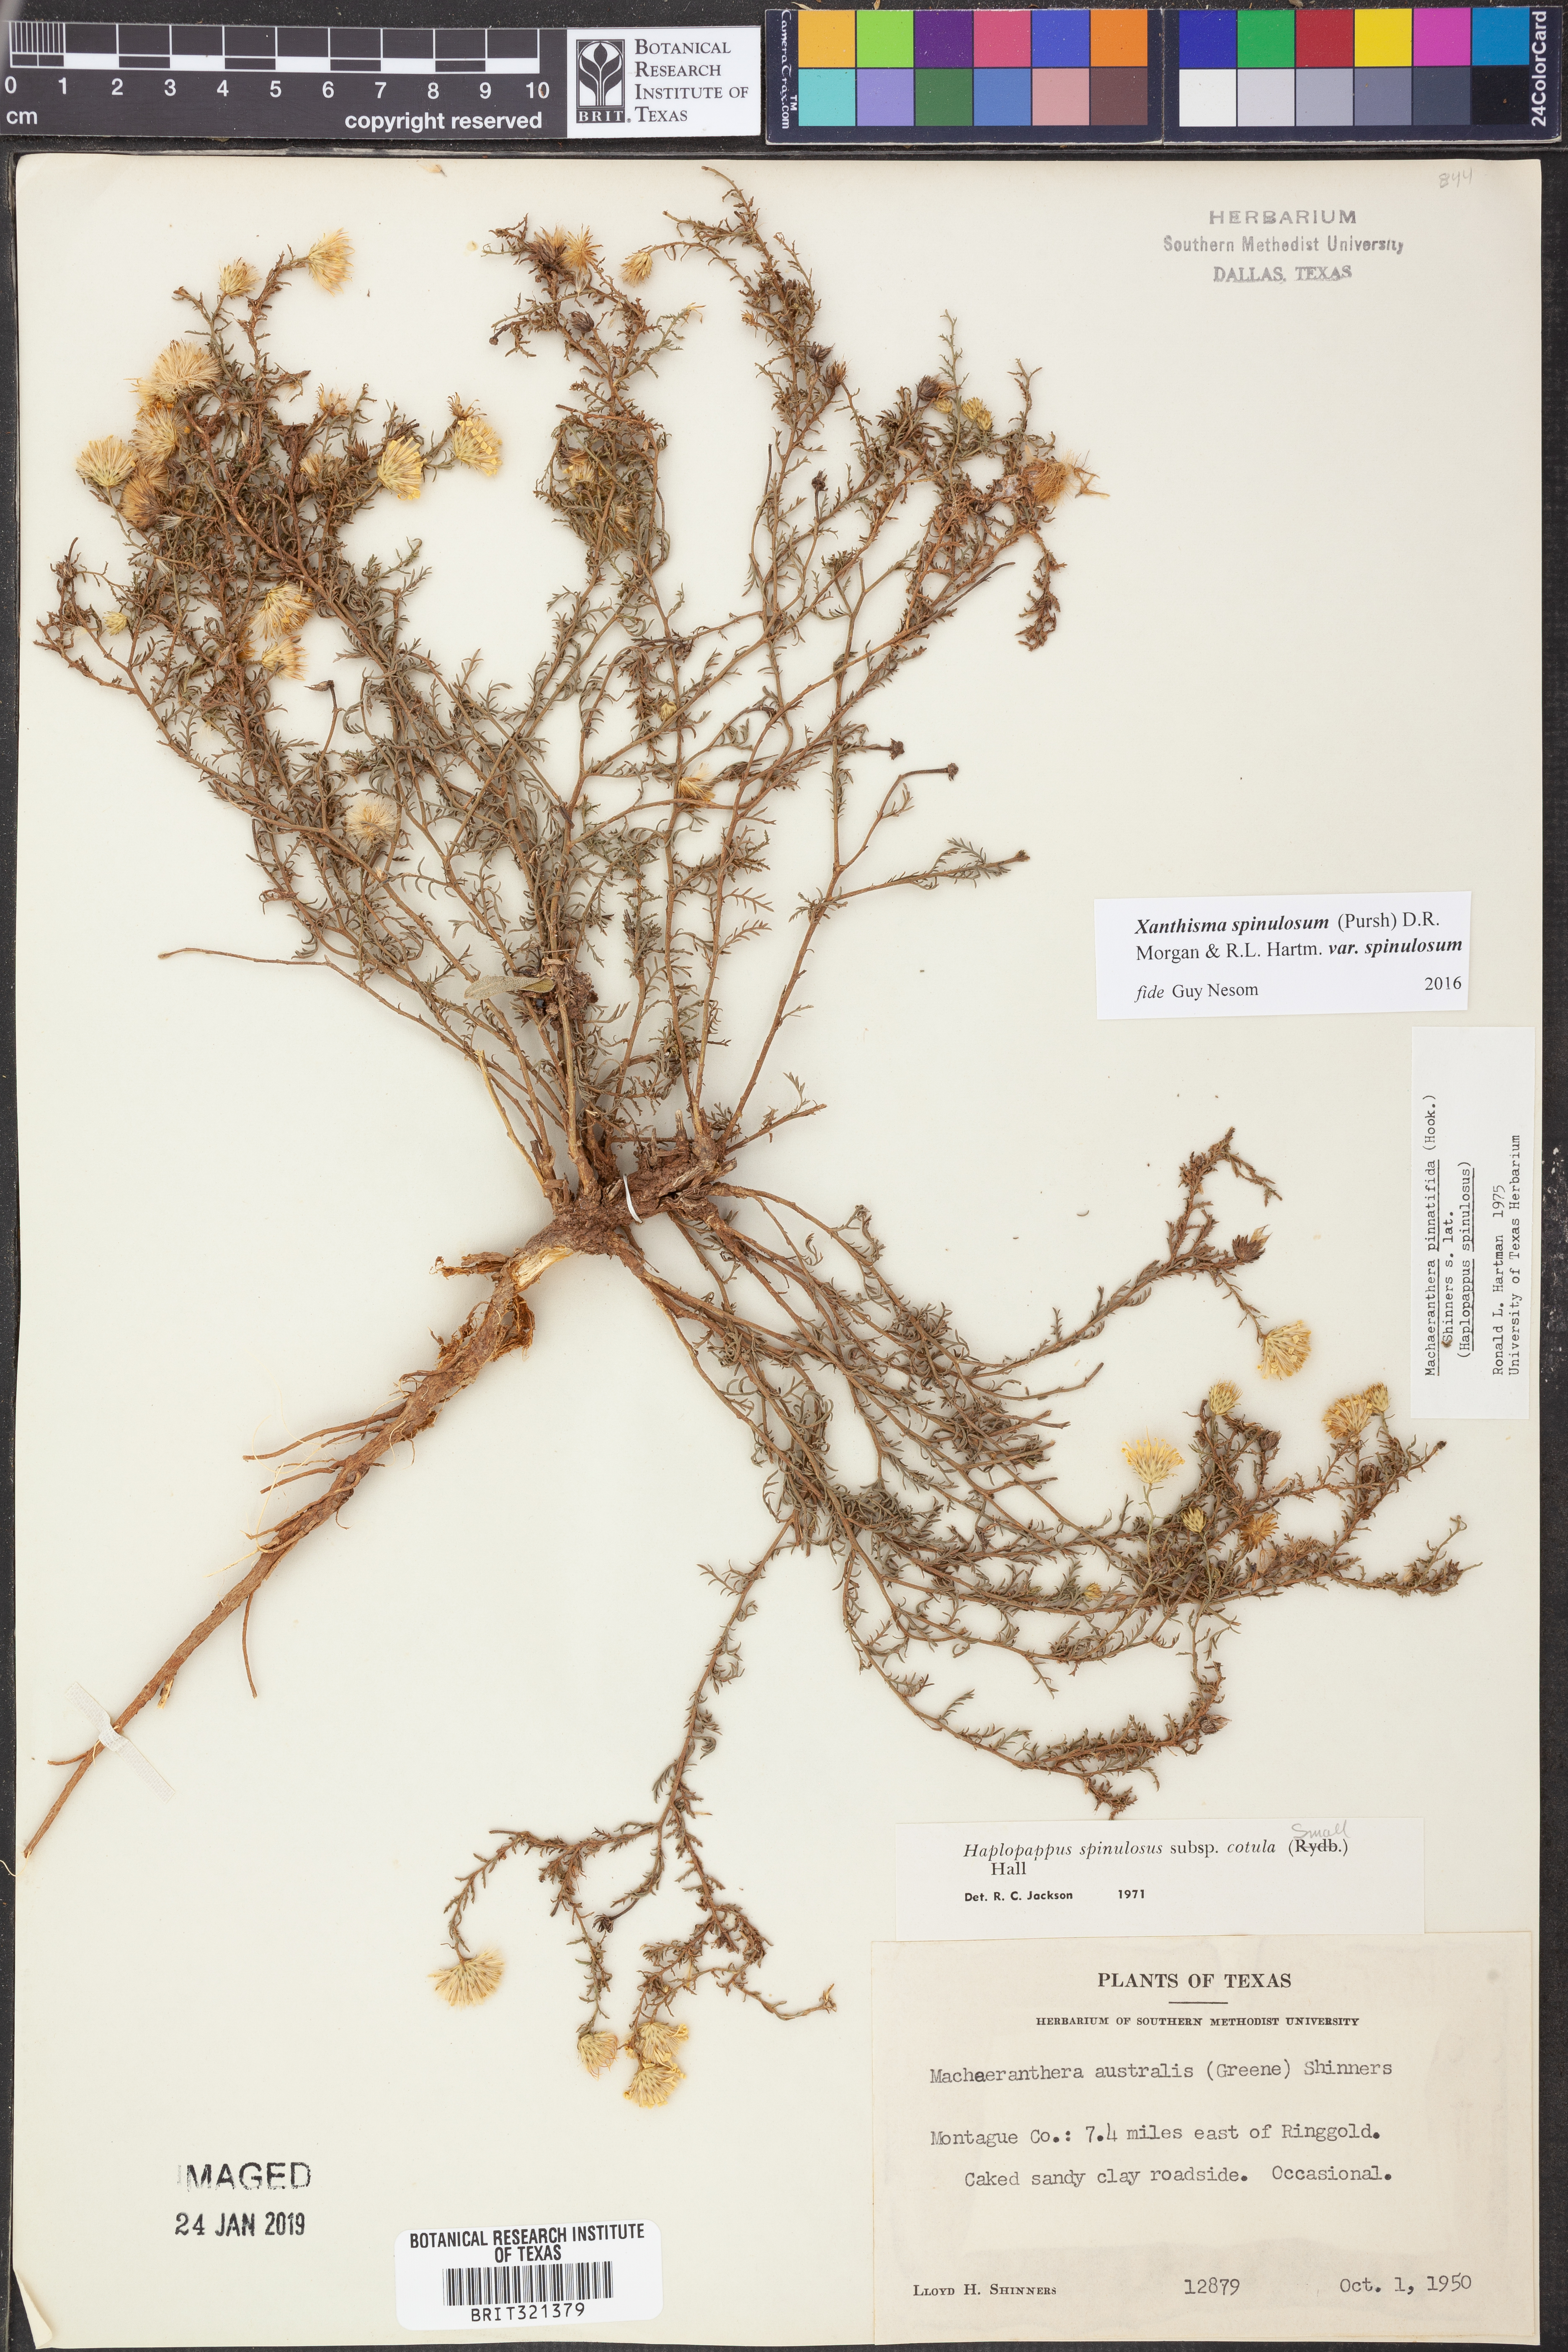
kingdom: Plantae
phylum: Tracheophyta
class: Magnoliopsida
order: Asterales
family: Asteraceae
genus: Xanthisma
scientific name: Xanthisma spinulosum
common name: Spiny goldenweed
